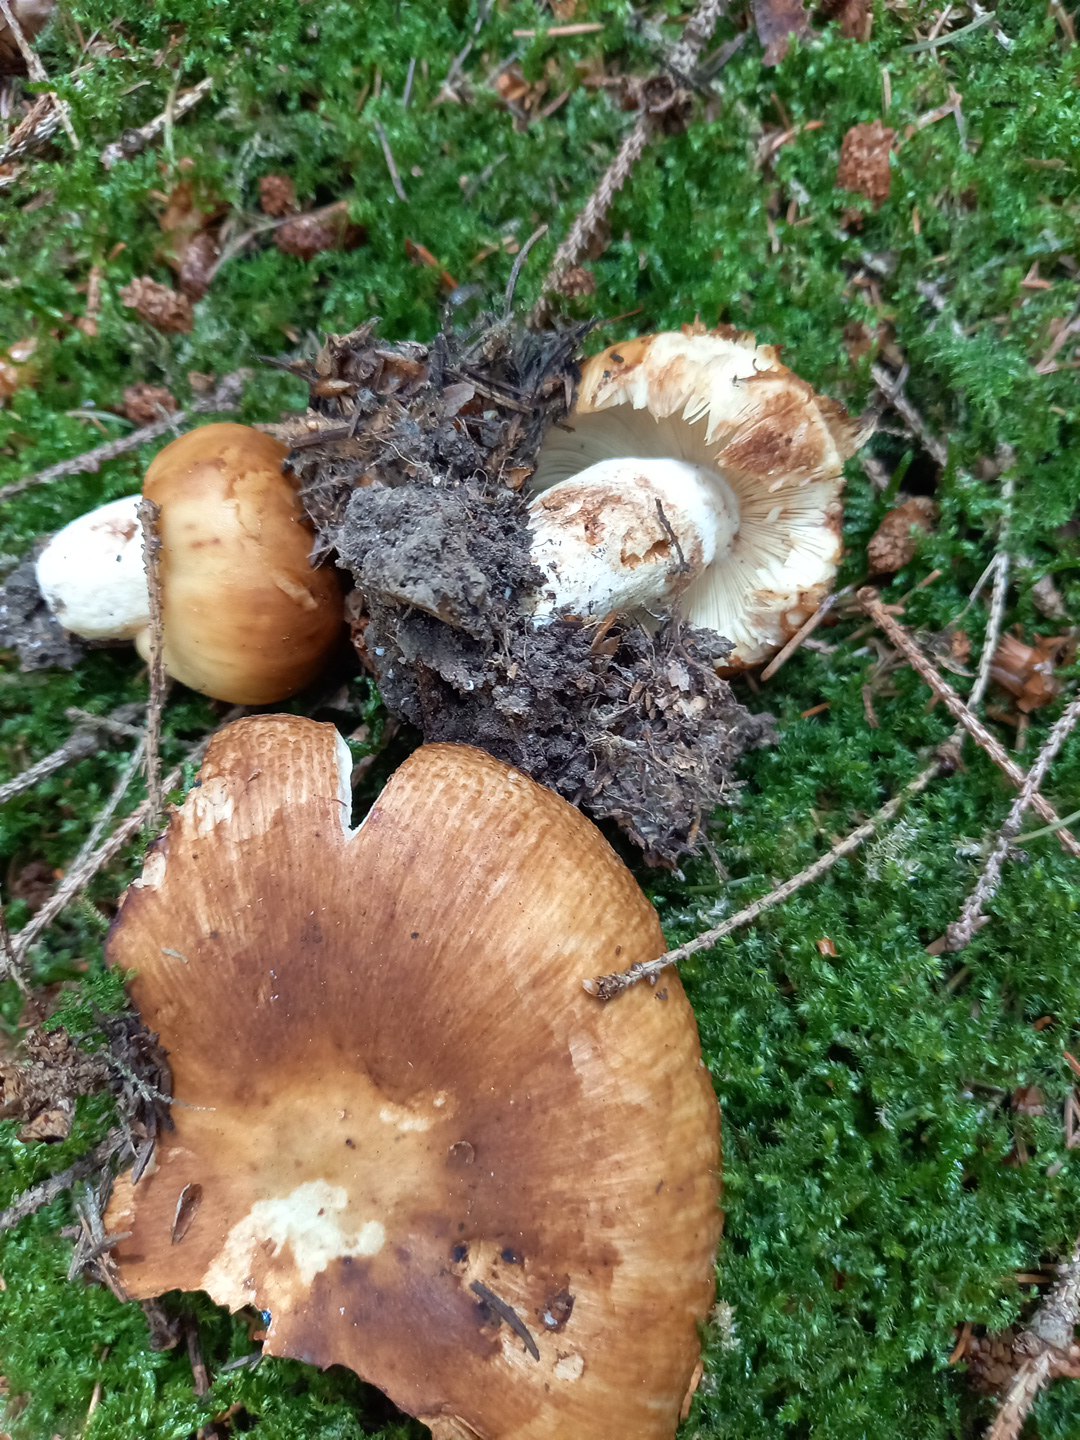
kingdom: Fungi
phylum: Basidiomycota
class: Agaricomycetes
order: Russulales
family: Russulaceae
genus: Russula
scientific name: Russula foetens
